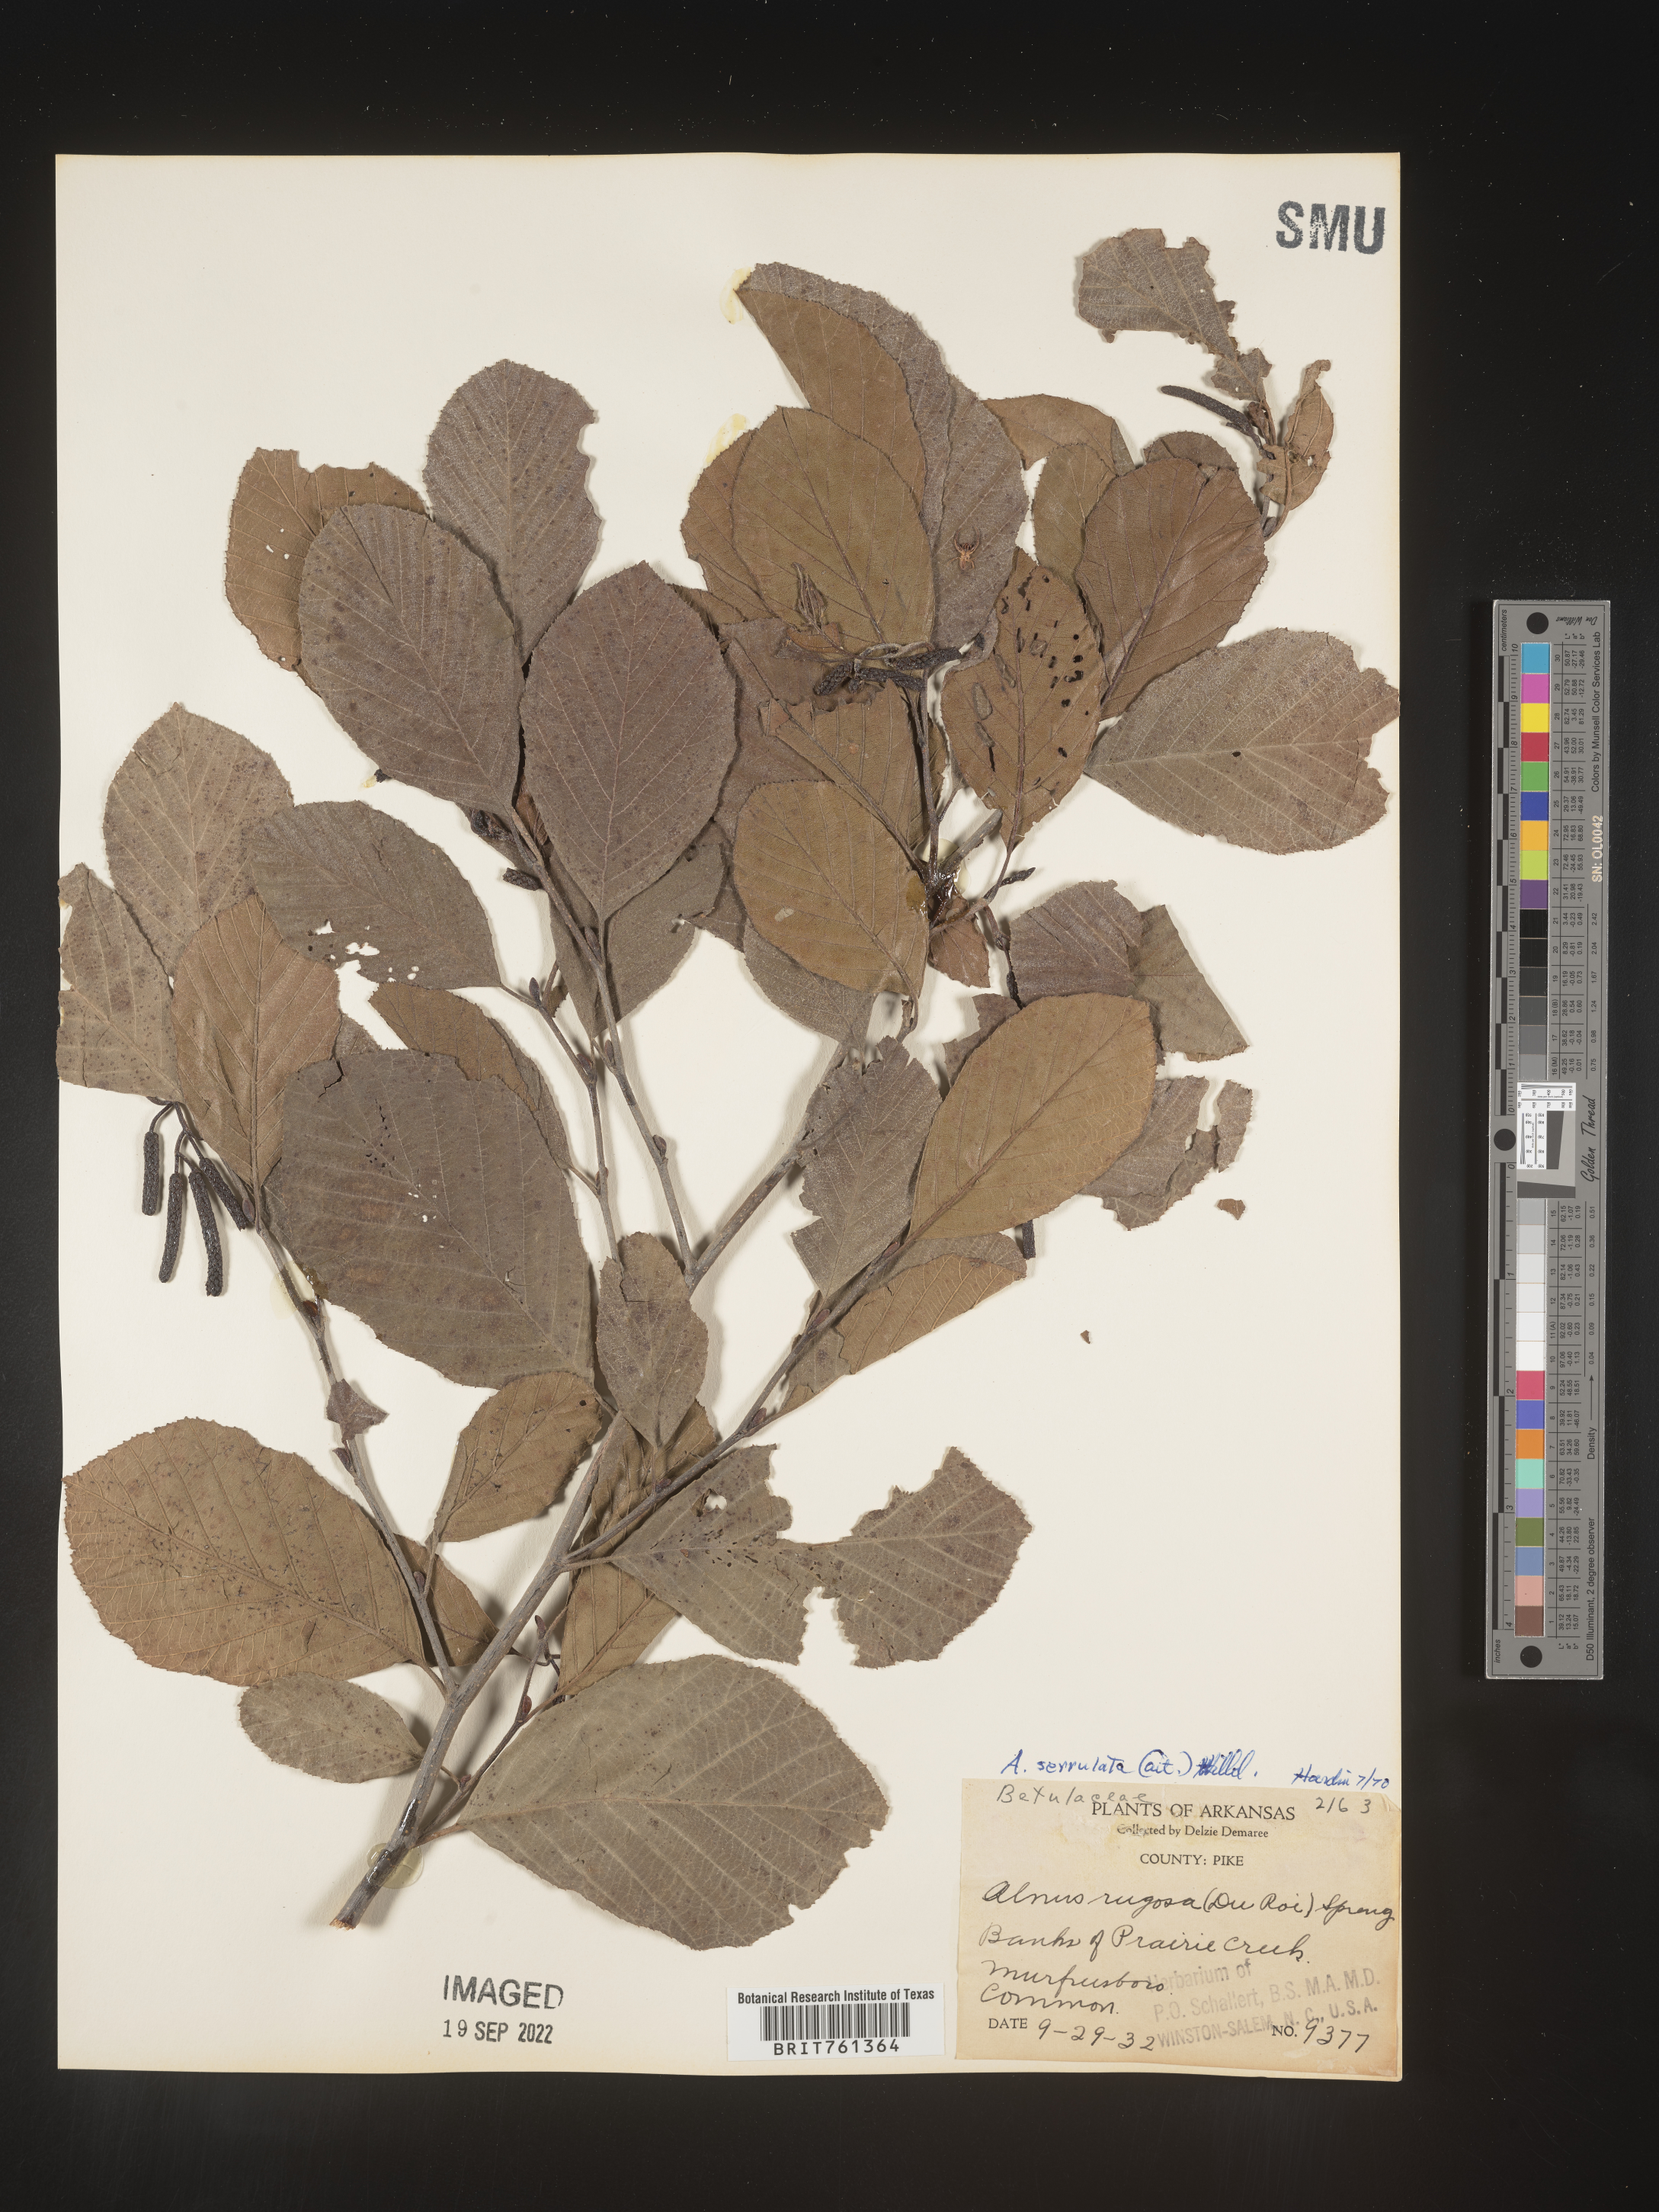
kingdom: Plantae
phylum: Tracheophyta
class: Magnoliopsida
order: Fagales
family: Betulaceae
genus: Alnus
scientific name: Alnus serrulata
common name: Hazel alder
